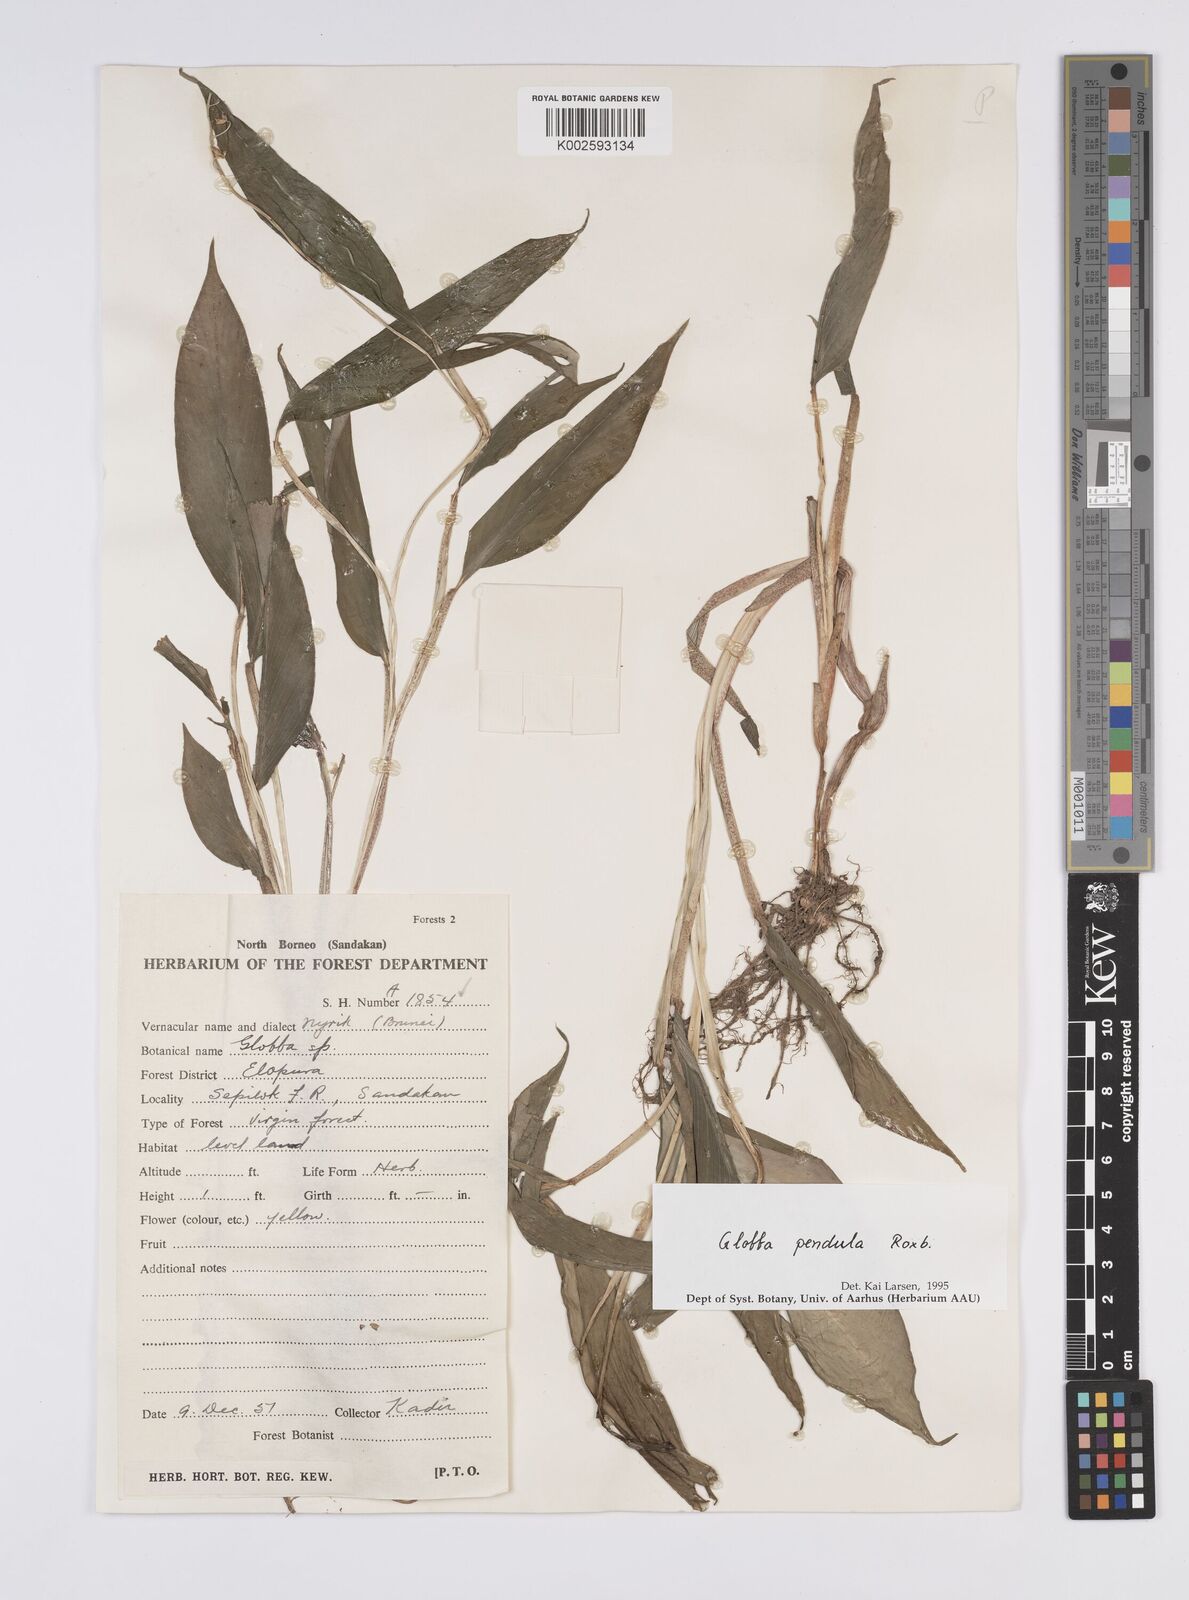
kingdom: Plantae
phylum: Tracheophyta
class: Liliopsida
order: Zingiberales
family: Zingiberaceae
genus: Globba
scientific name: Globba pendula
